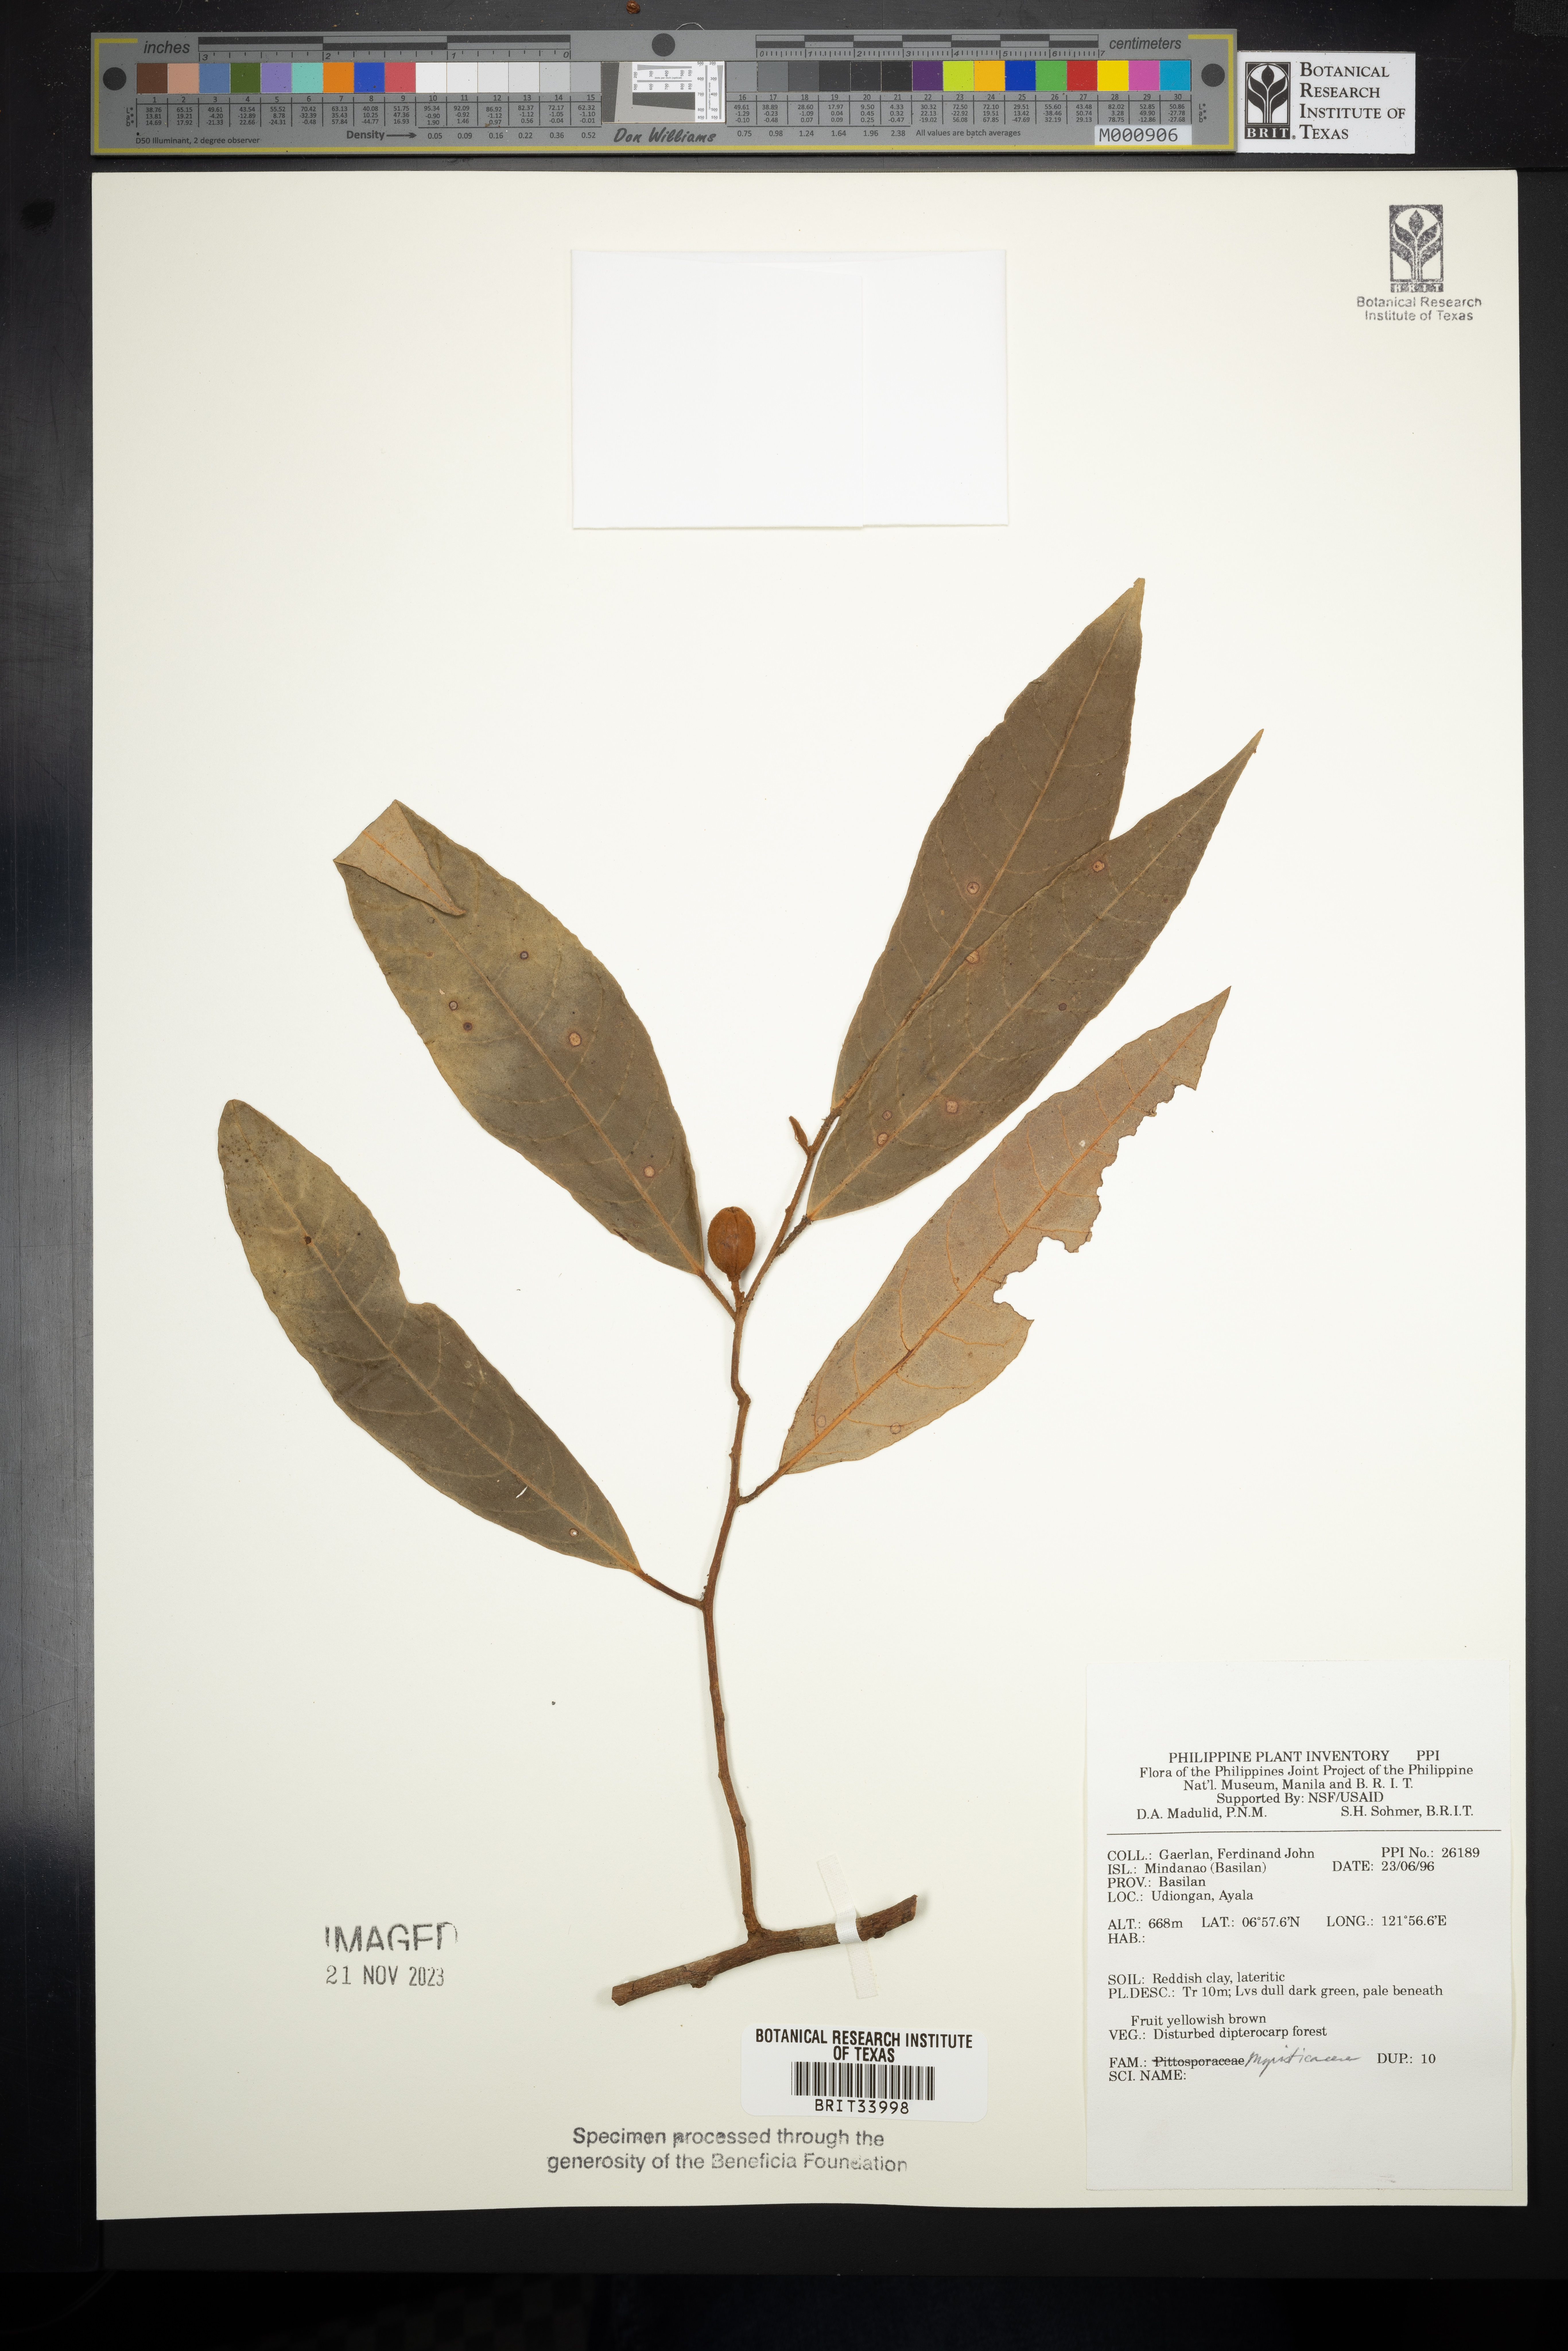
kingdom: Plantae
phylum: Tracheophyta
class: Magnoliopsida
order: Magnoliales
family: Myristicaceae
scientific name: Myristicaceae
